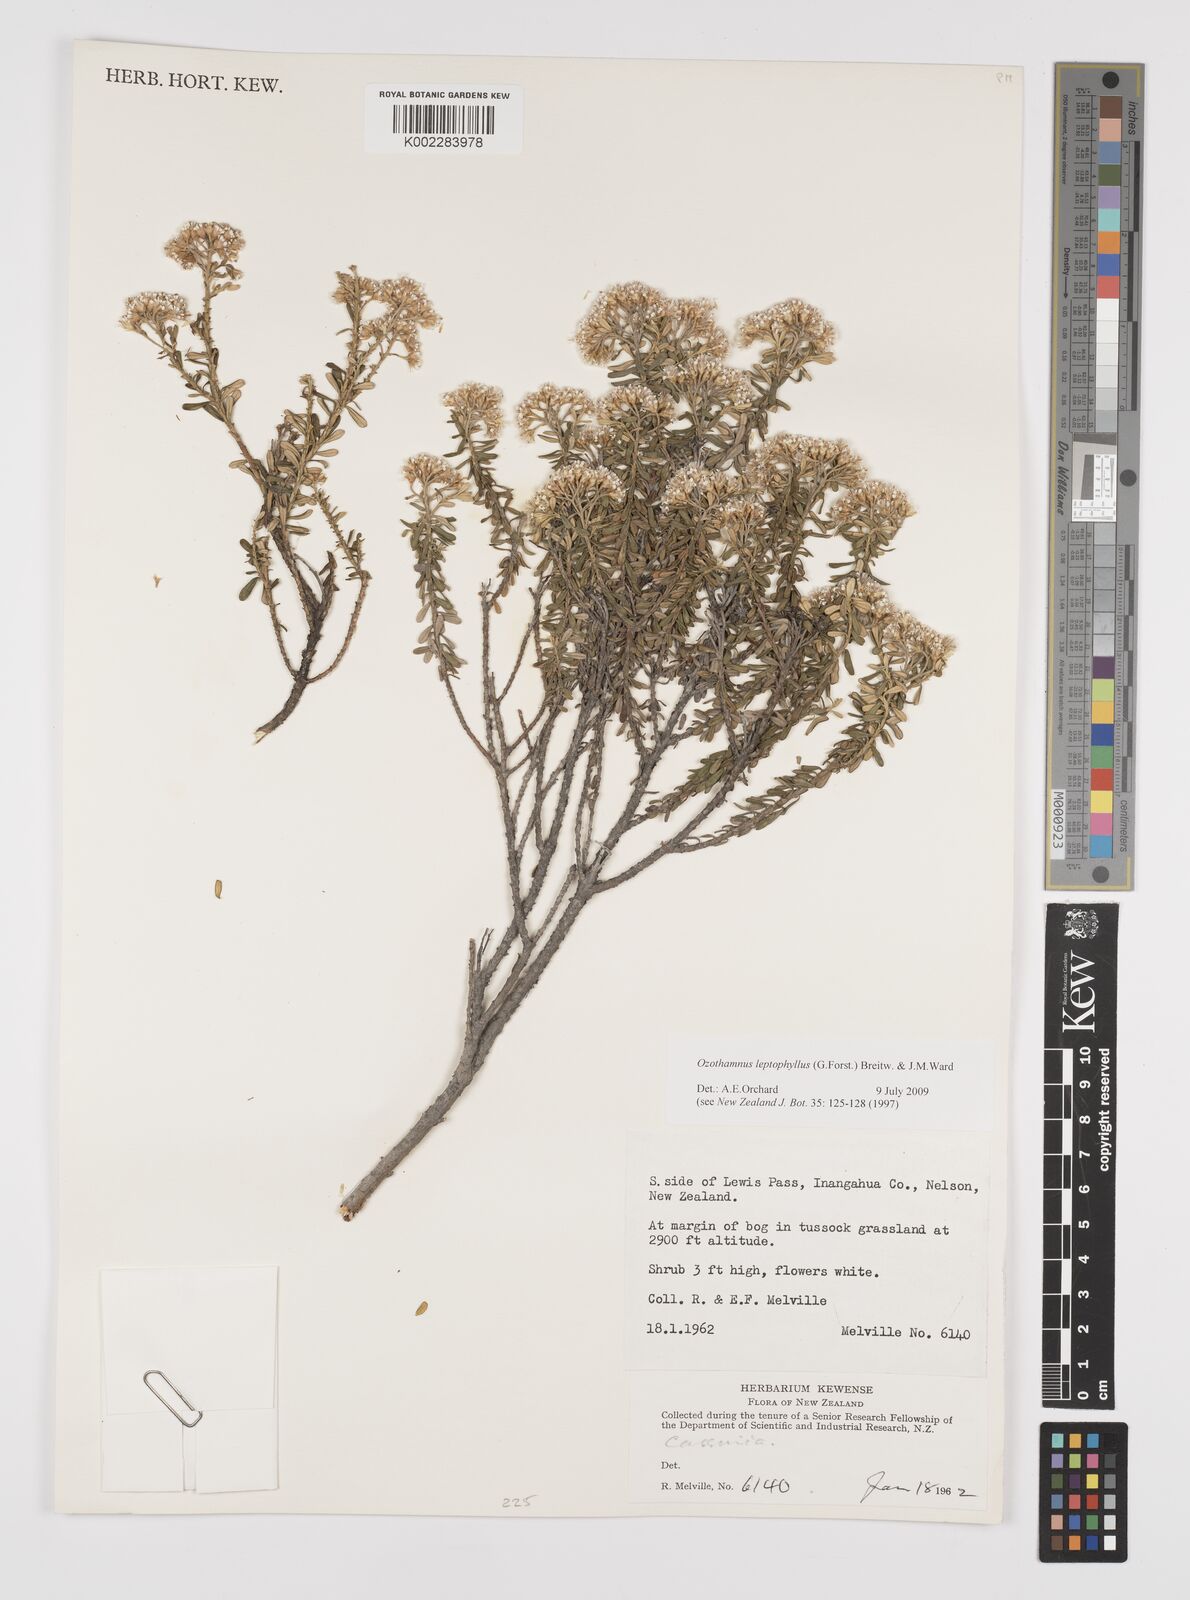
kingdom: Plantae
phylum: Tracheophyta
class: Magnoliopsida
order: Asterales
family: Asteraceae
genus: Ozothamnus
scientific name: Ozothamnus
